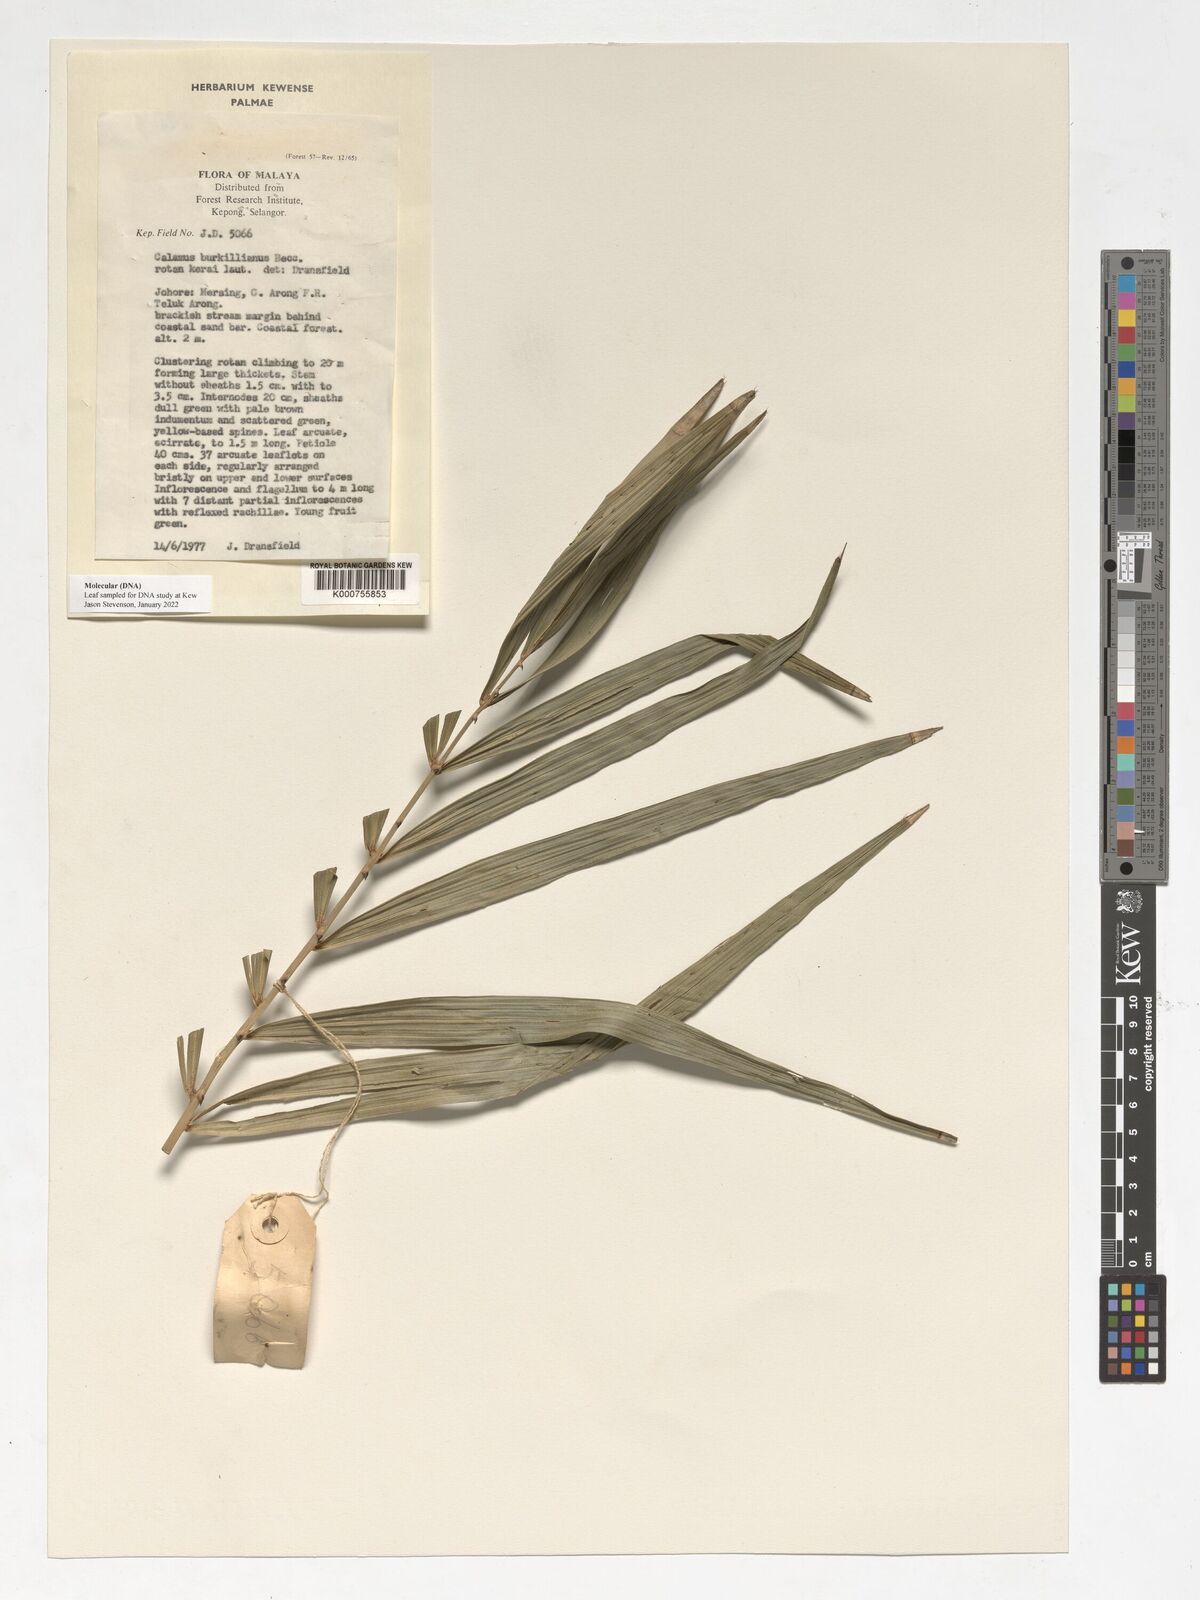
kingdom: Plantae
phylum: Tracheophyta
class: Liliopsida
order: Arecales
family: Arecaceae
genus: Calamus
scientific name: Calamus burkillianus
